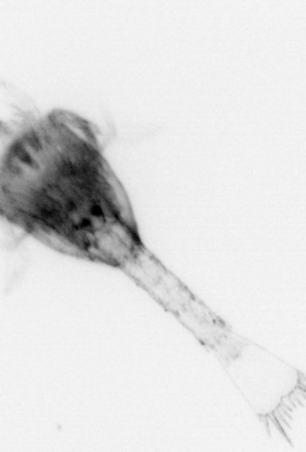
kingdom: Animalia
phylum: Arthropoda
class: Malacostraca
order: Decapoda
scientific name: Decapoda
